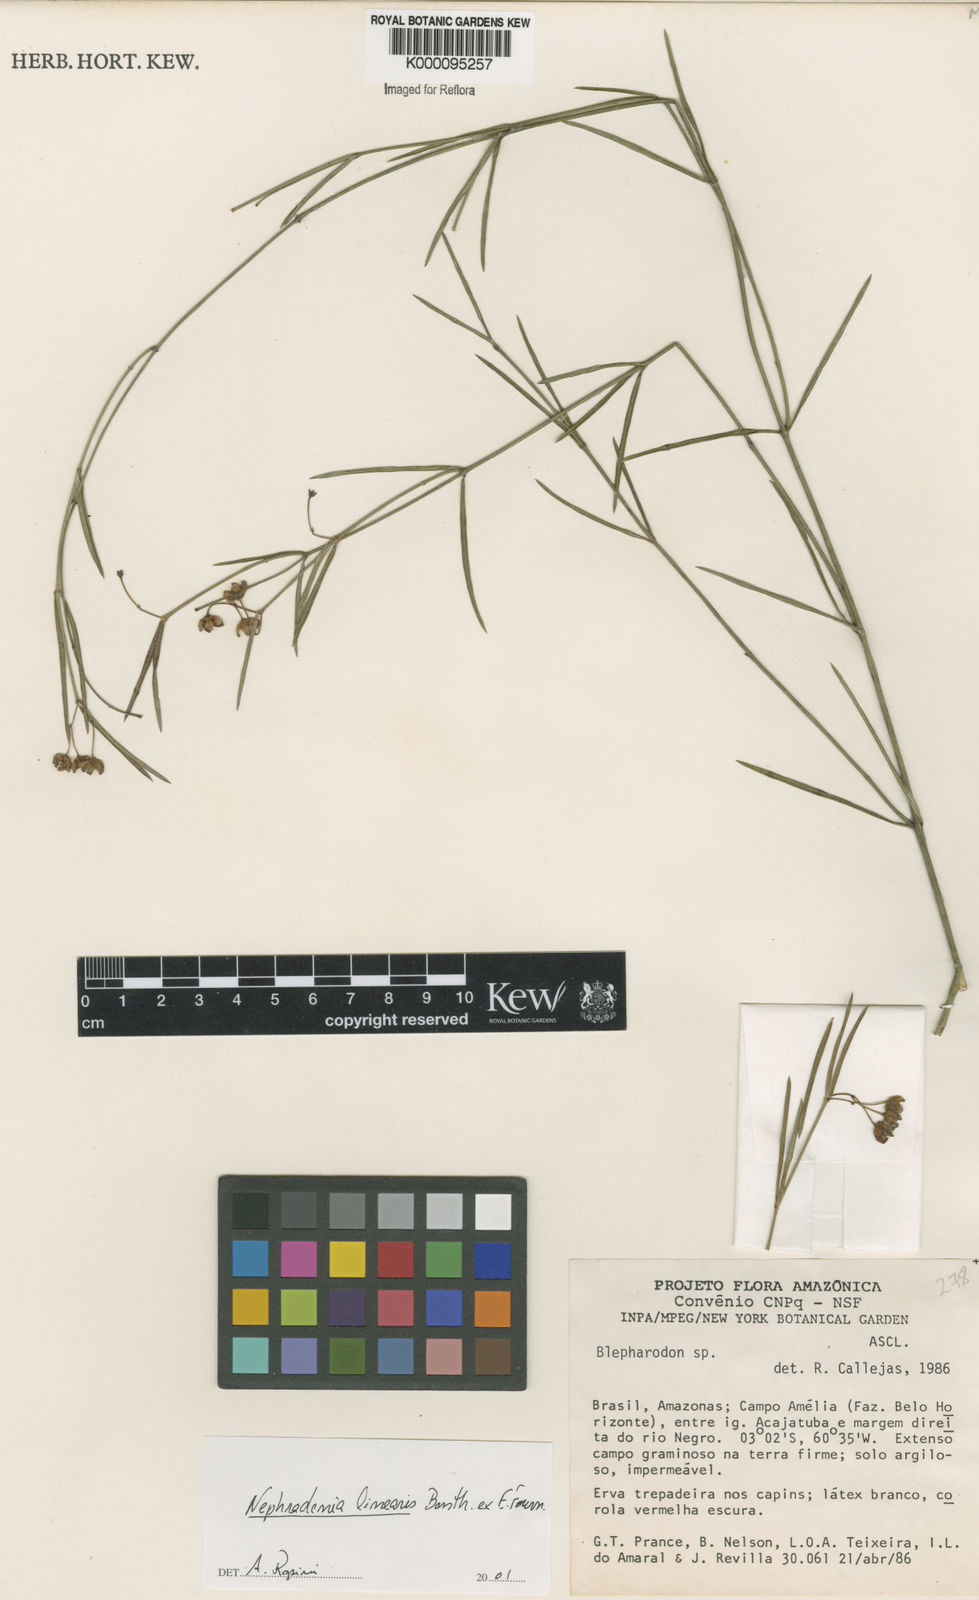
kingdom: Plantae
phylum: Tracheophyta
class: Magnoliopsida
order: Gentianales
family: Apocynaceae
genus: Blepharodon
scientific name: Blepharodon lineare
